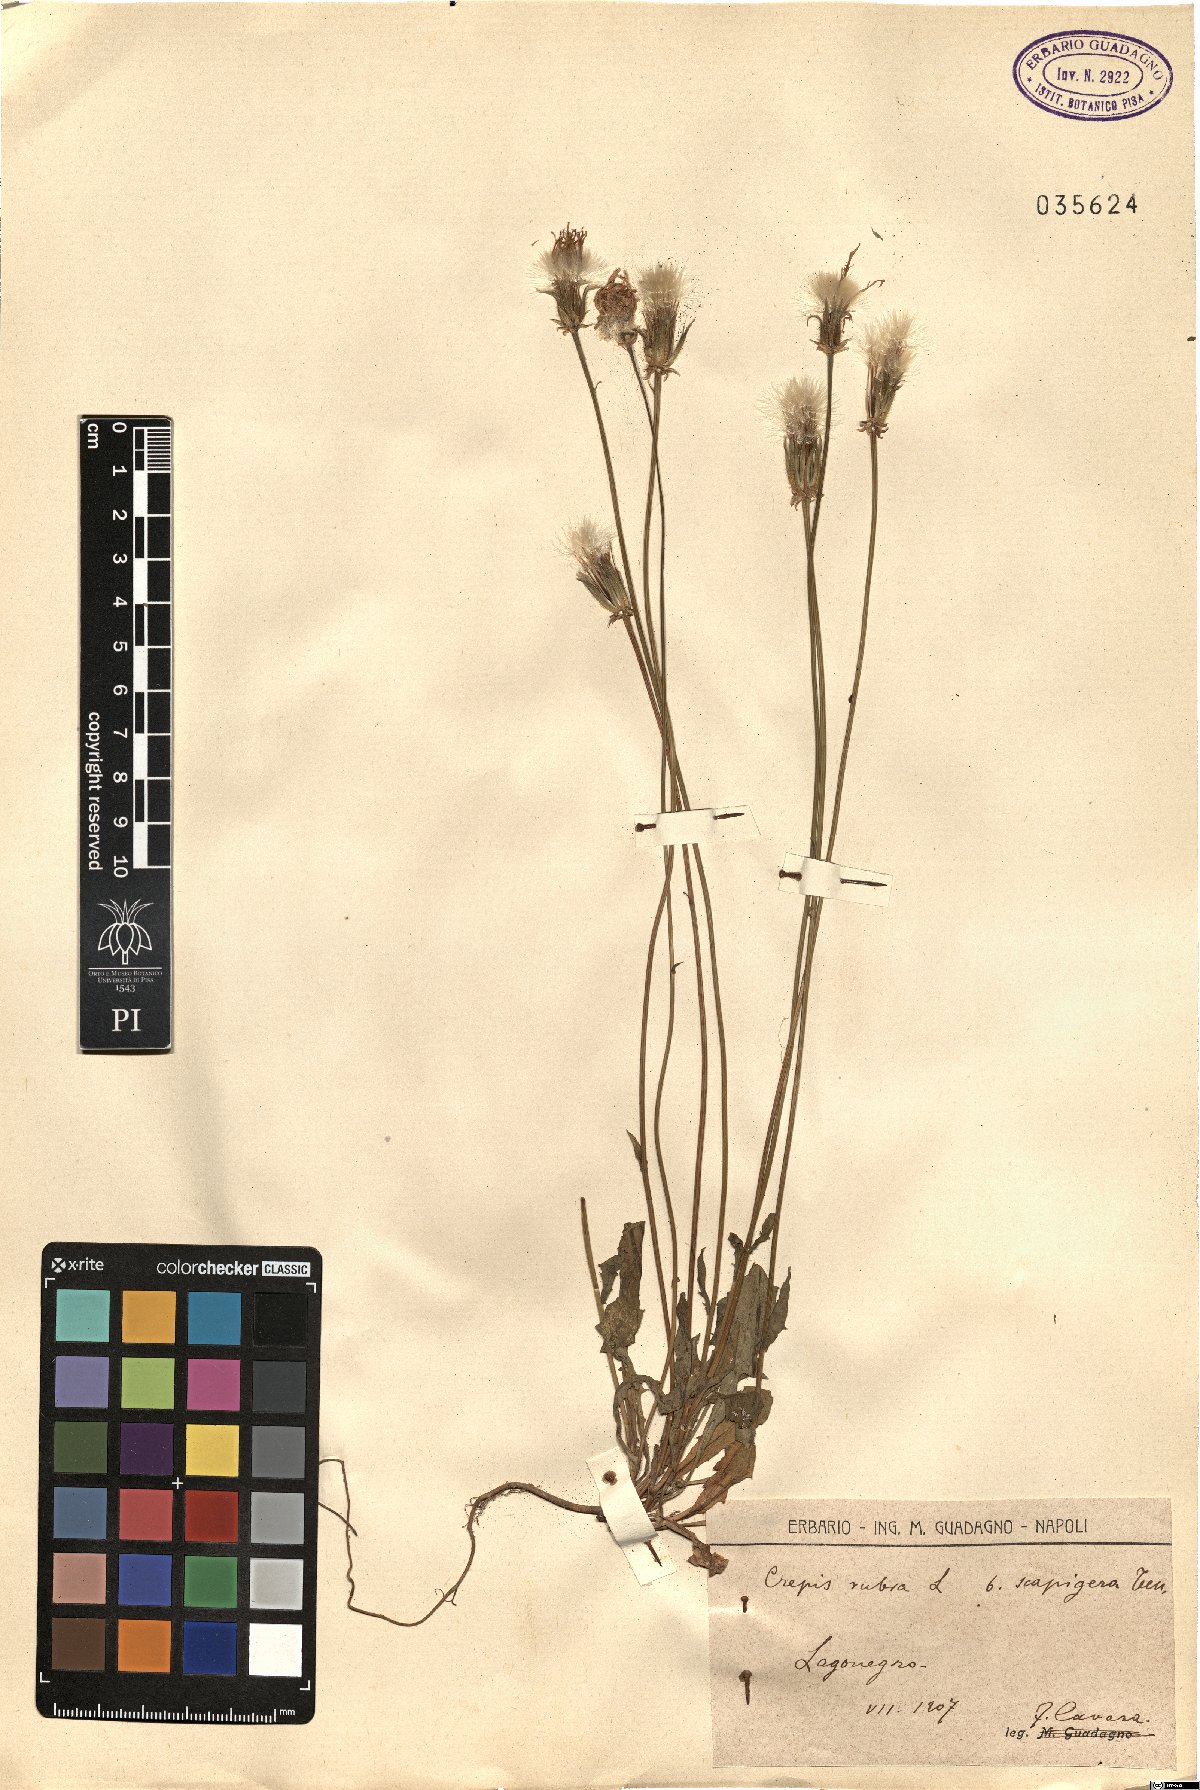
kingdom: Plantae
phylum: Tracheophyta
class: Magnoliopsida
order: Asterales
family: Asteraceae
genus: Crepis
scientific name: Crepis rubra
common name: Pink hawk's-beard
